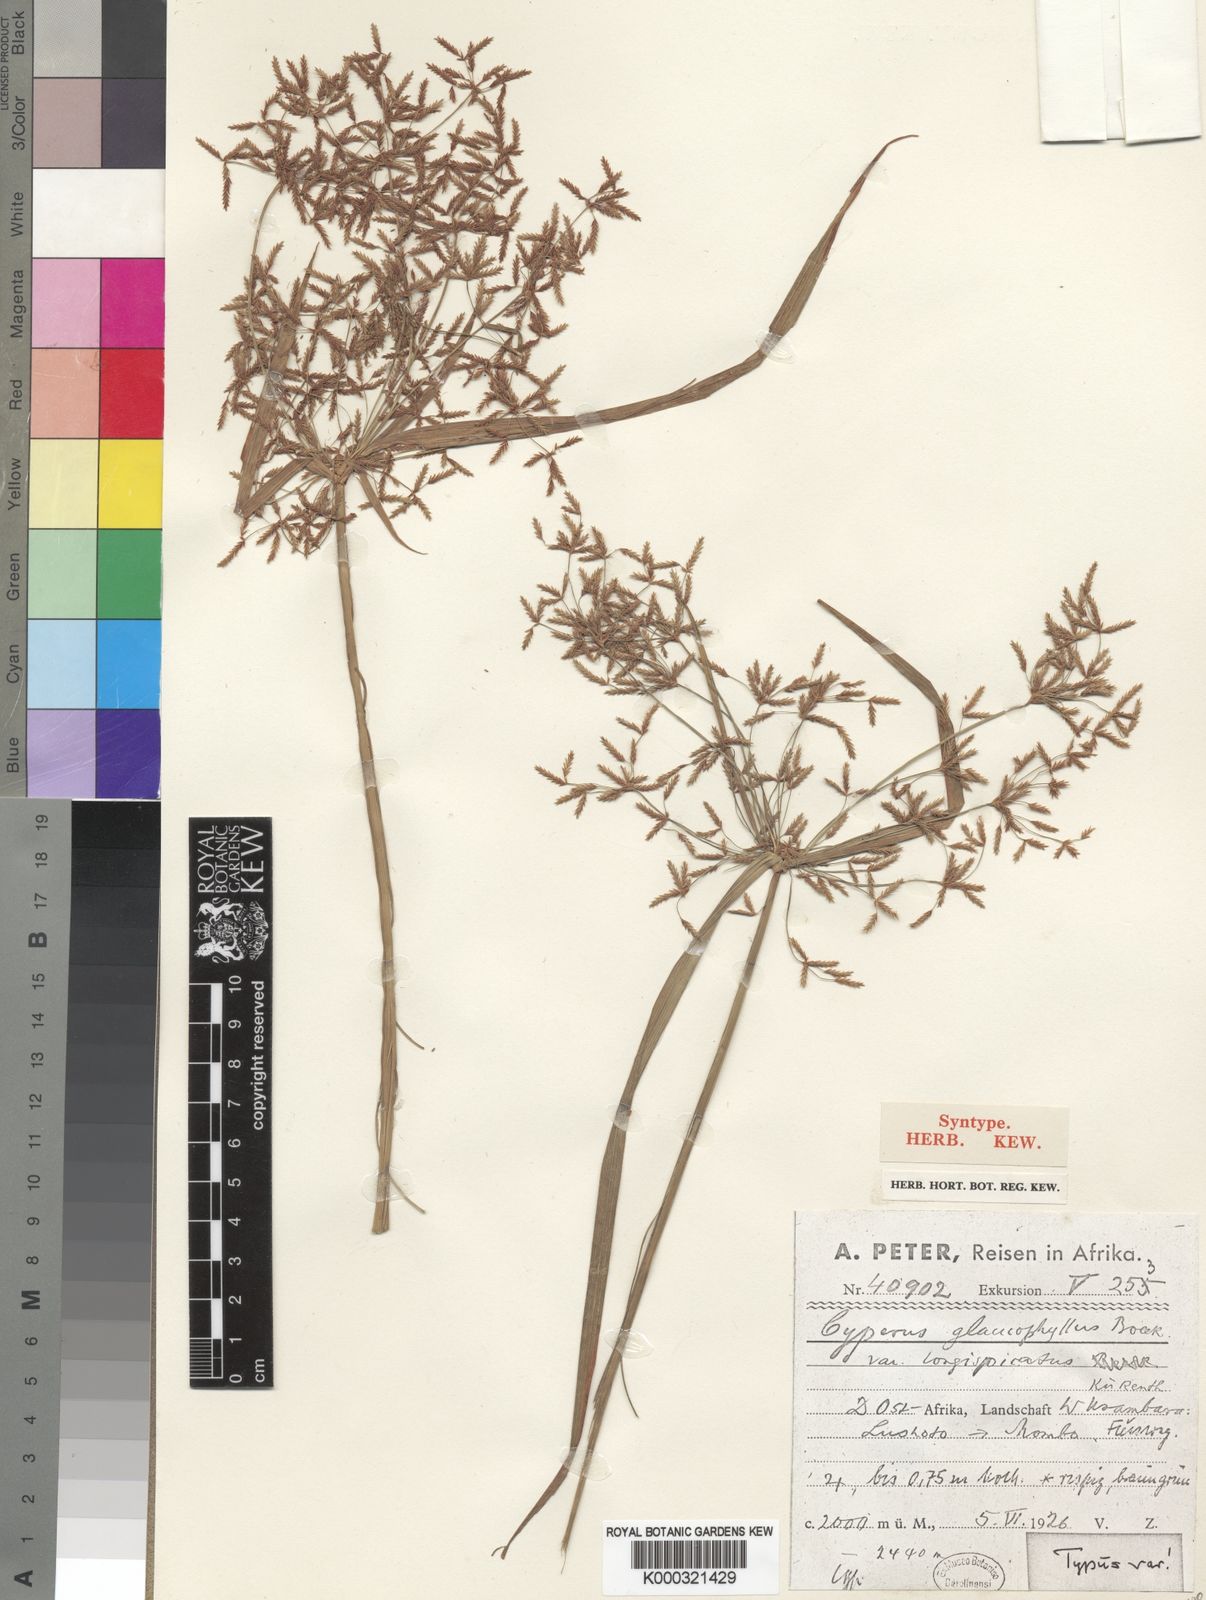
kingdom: Plantae
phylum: Tracheophyta
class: Liliopsida
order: Poales
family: Cyperaceae
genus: Cyperus
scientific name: Cyperus glaucophyllus
